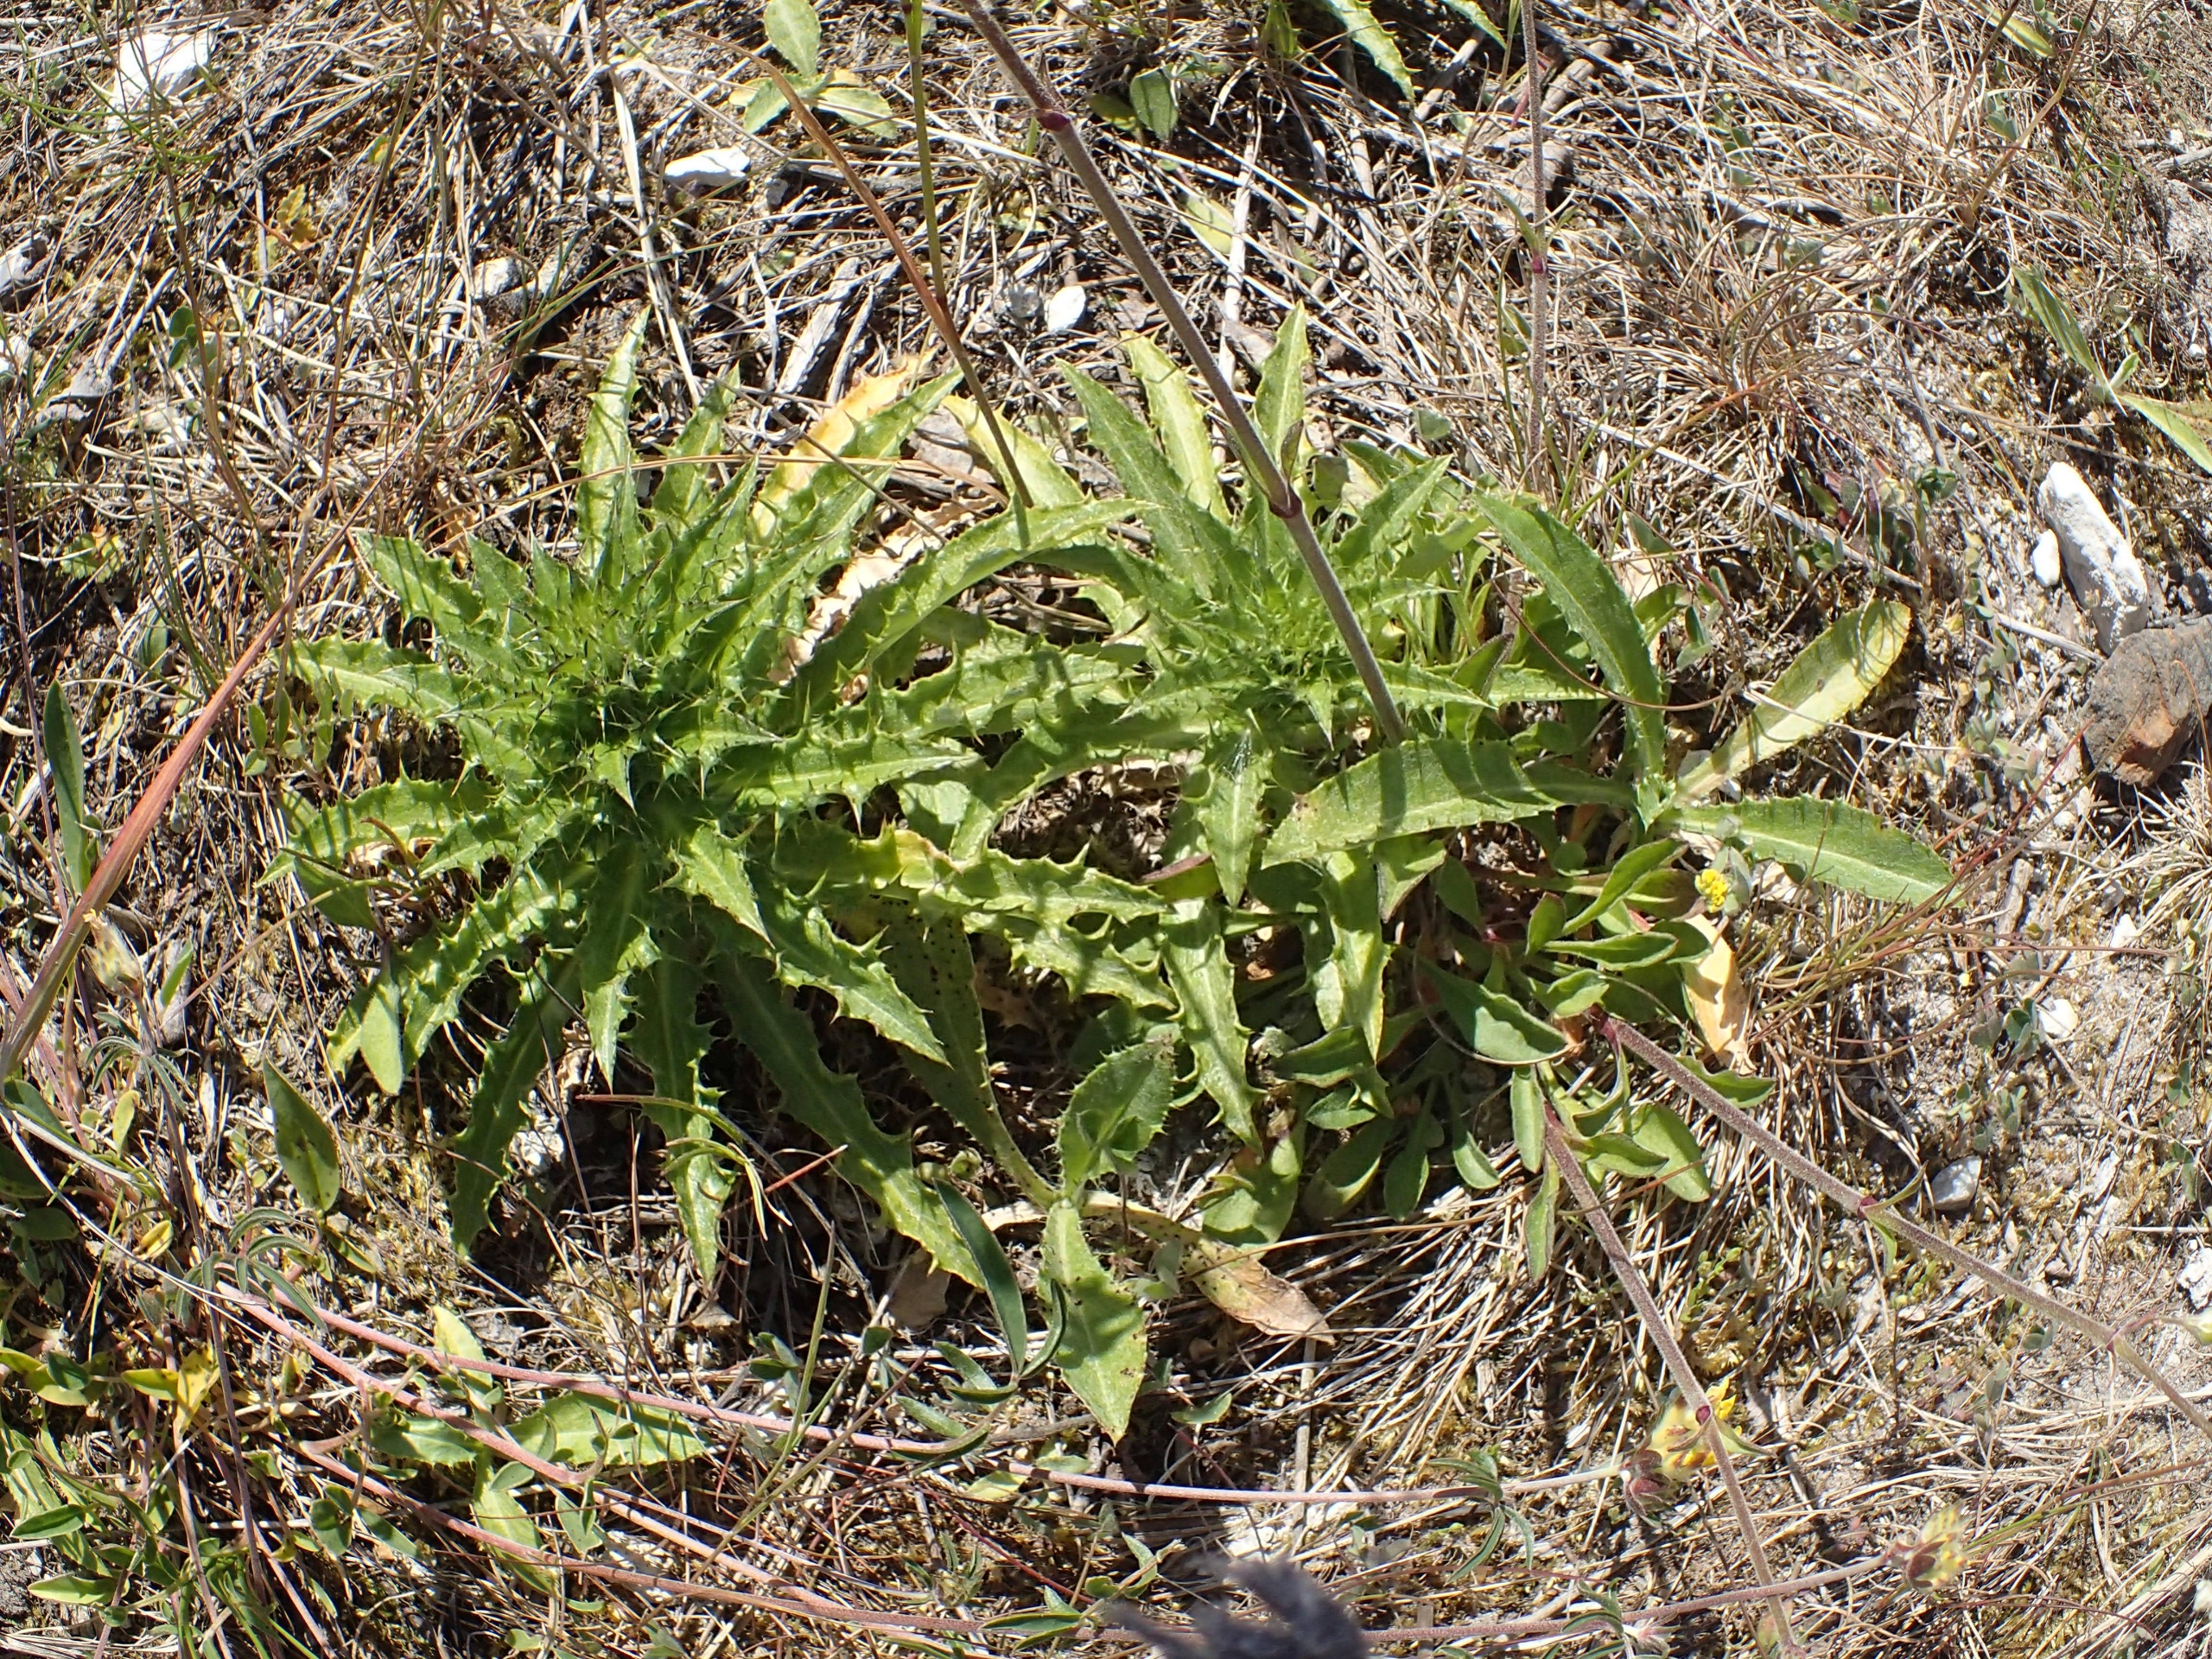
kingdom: Plantae
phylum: Tracheophyta
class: Magnoliopsida
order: Asterales
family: Asteraceae
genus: Carlina
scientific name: Carlina vulgaris
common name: Bakketidsel (underart)
